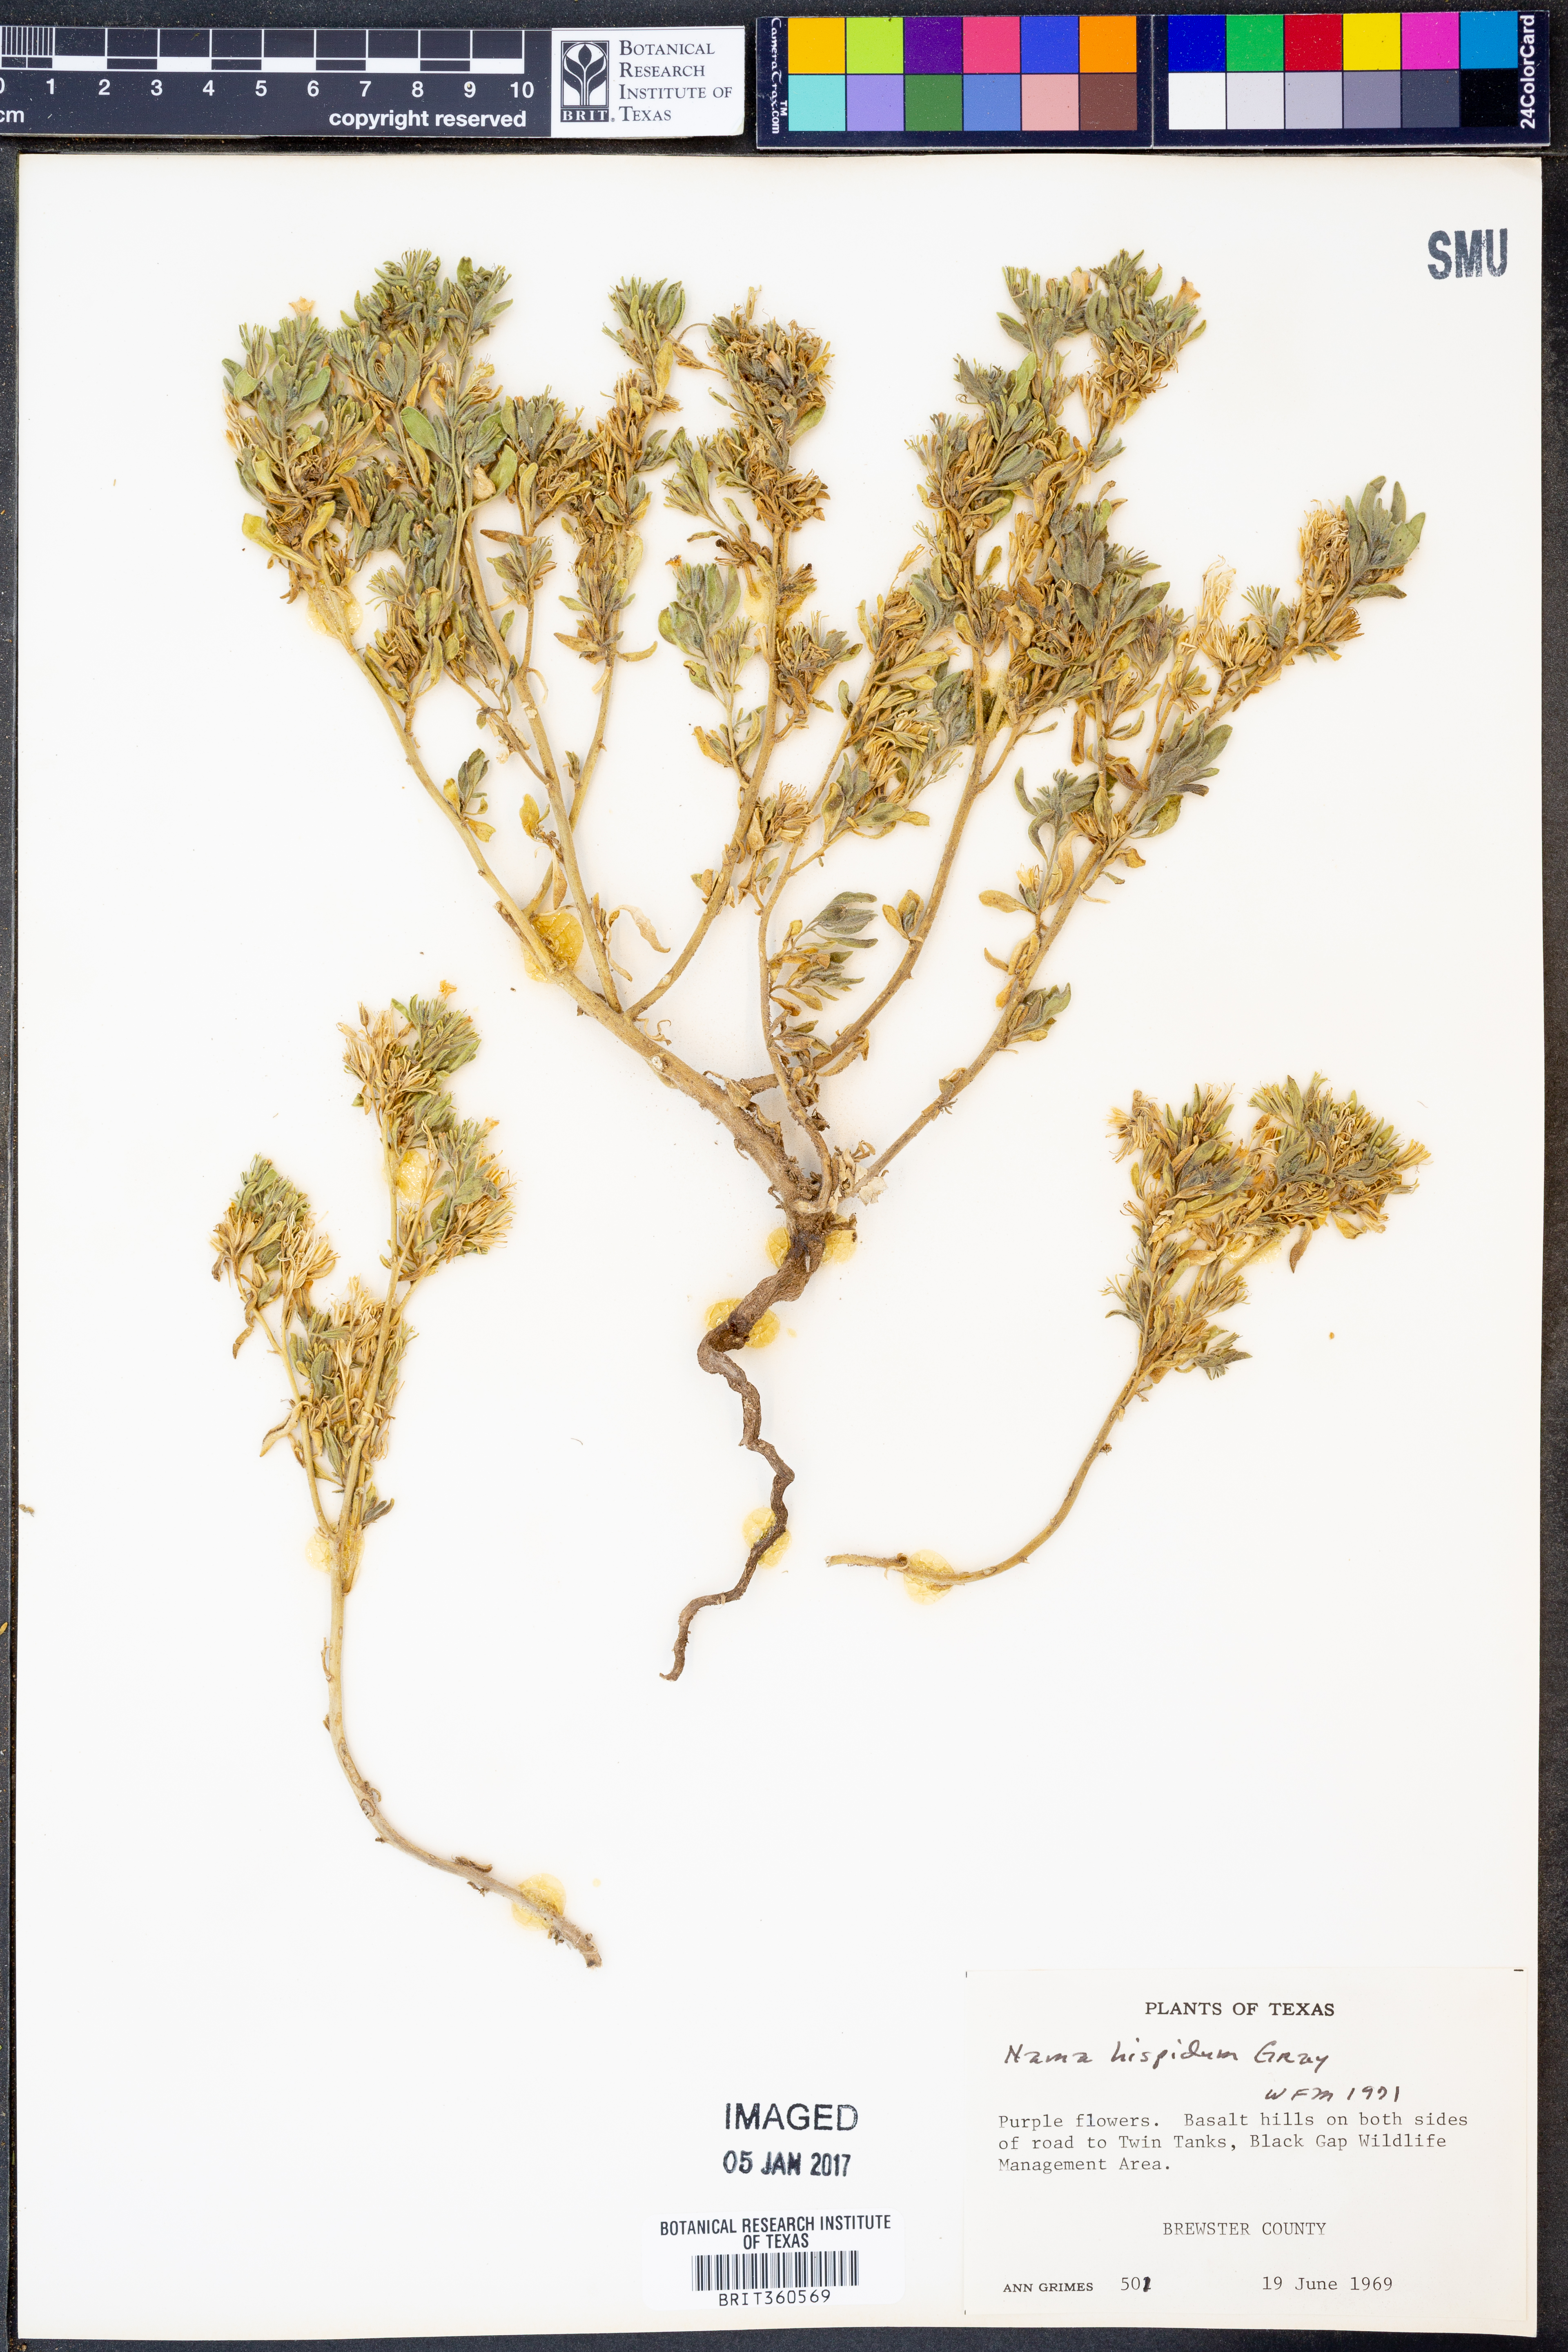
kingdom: Plantae
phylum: Tracheophyta
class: Magnoliopsida
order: Boraginales
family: Namaceae
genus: Nama
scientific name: Nama hispida
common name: Bristly nama
